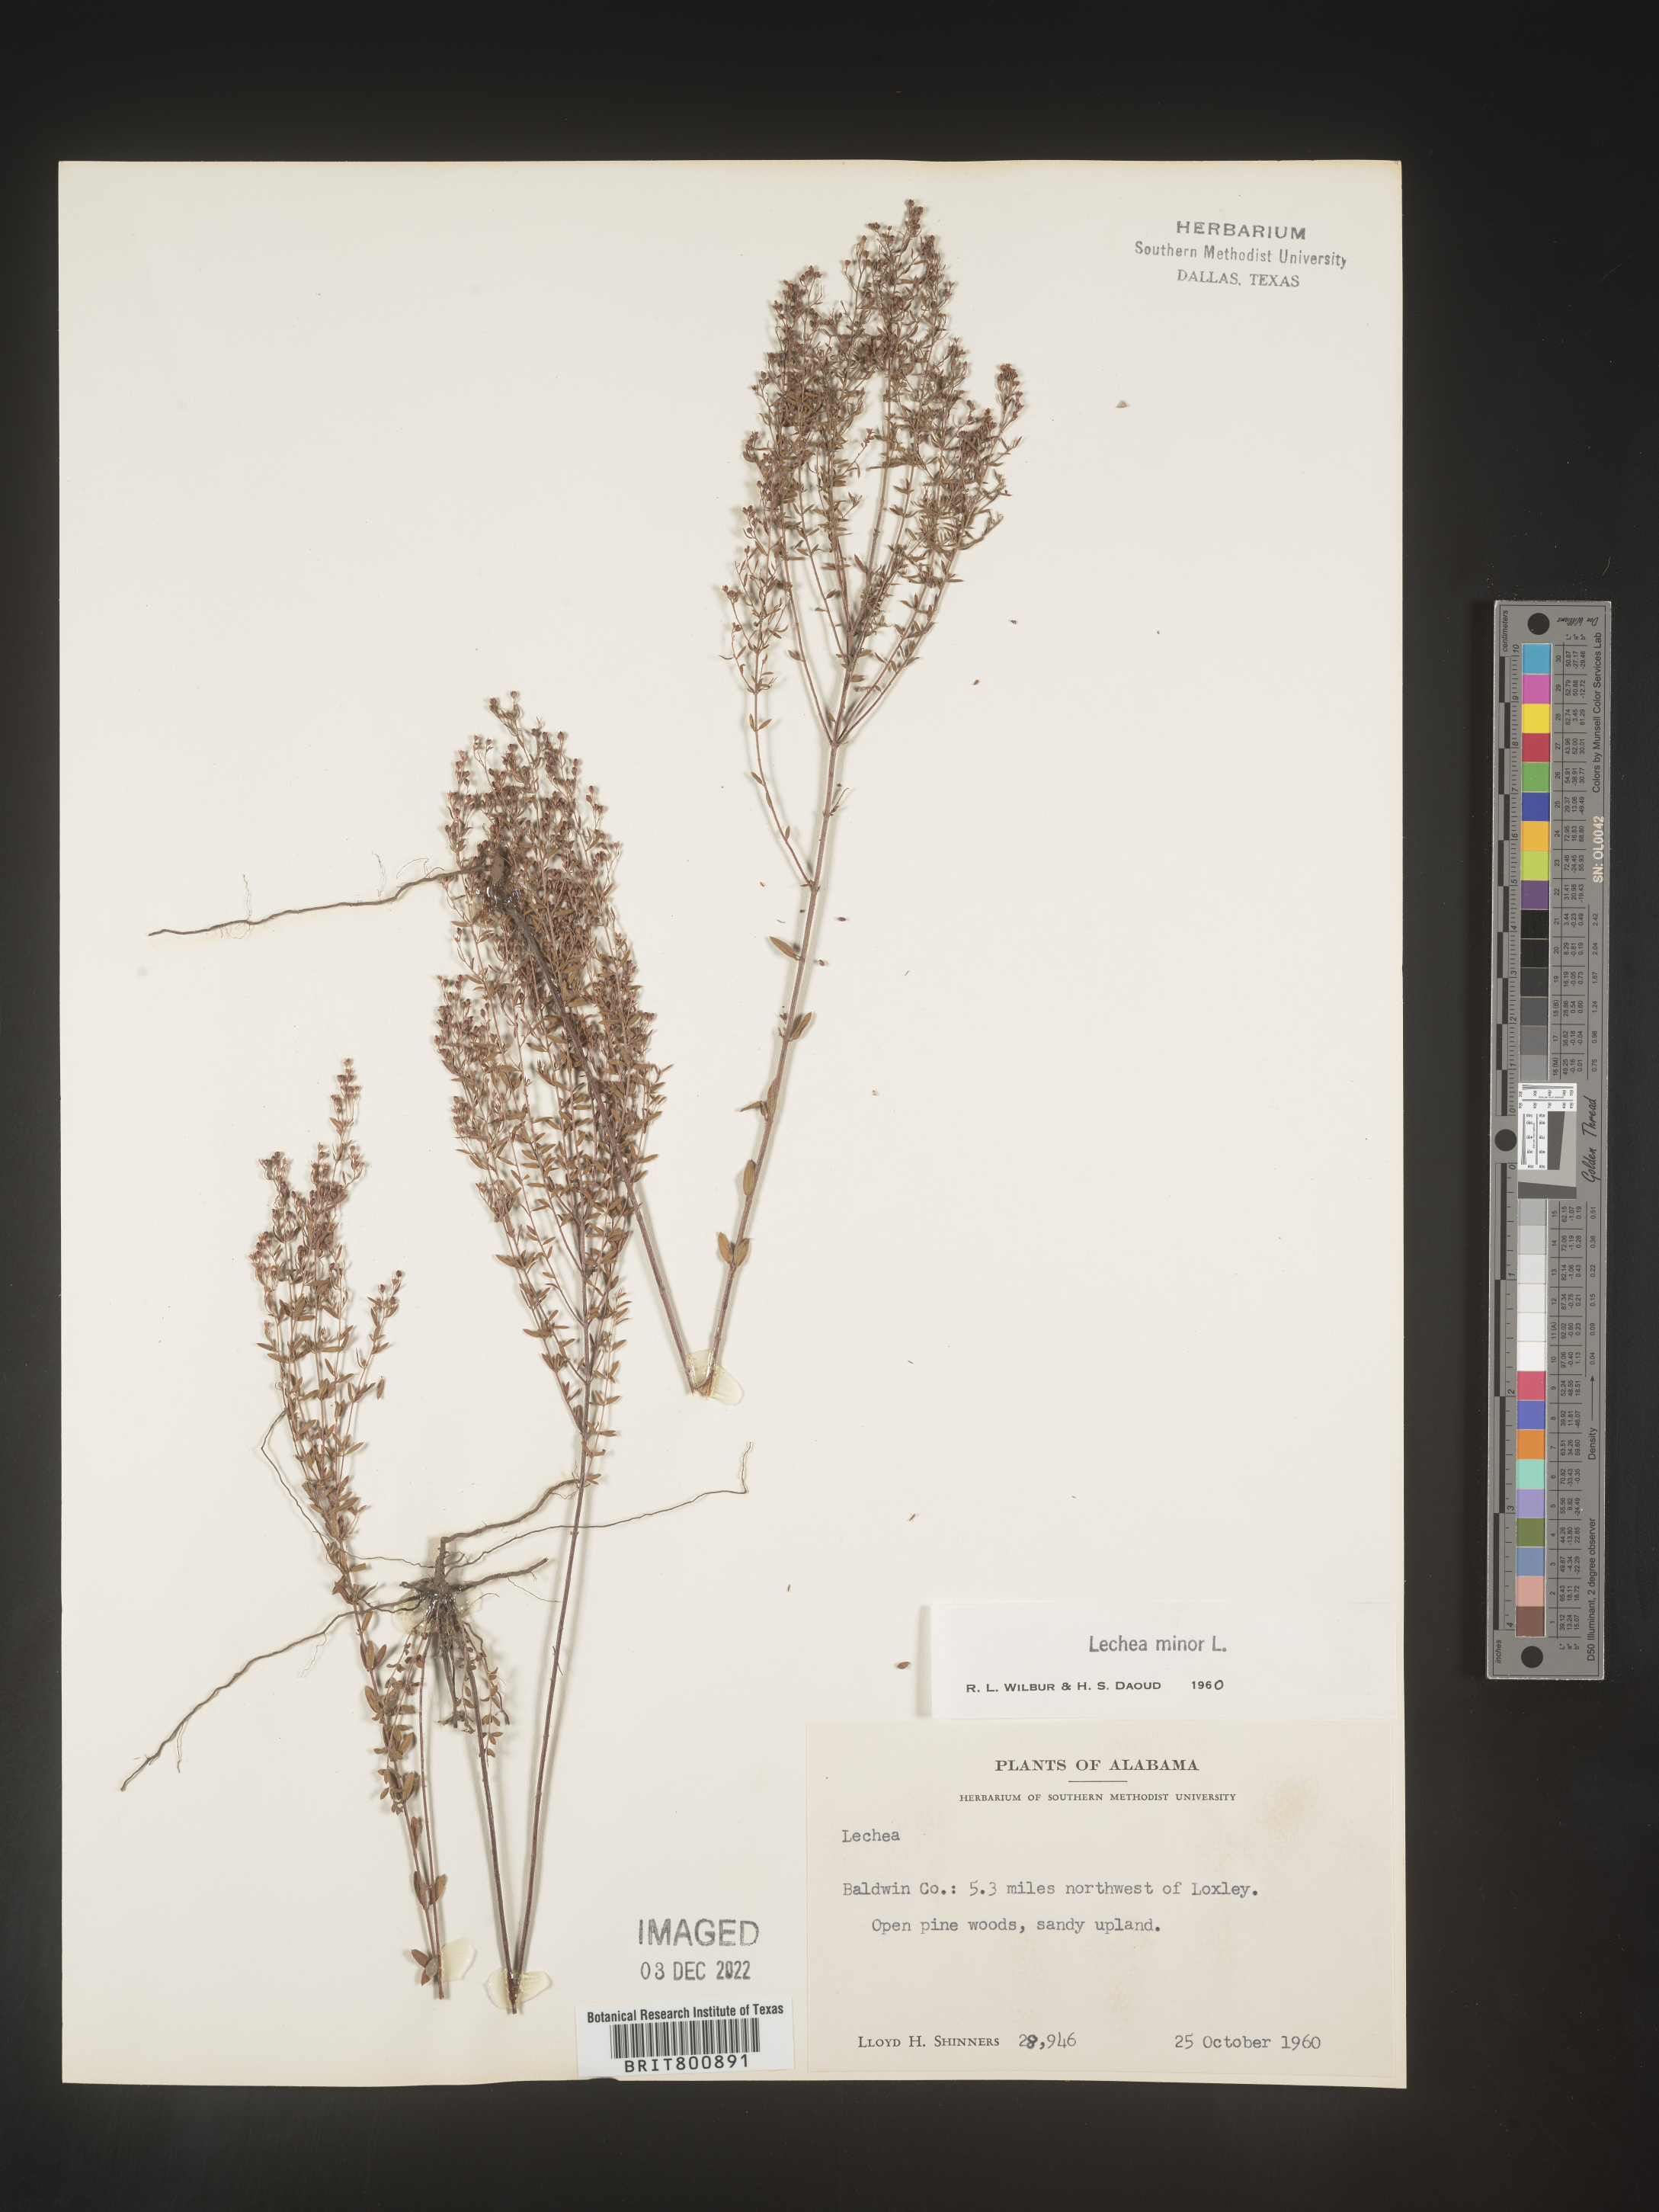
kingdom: Plantae
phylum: Tracheophyta
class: Magnoliopsida
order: Malvales
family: Cistaceae
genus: Lechea
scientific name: Lechea minor
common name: Thyme-leaf pinweed
